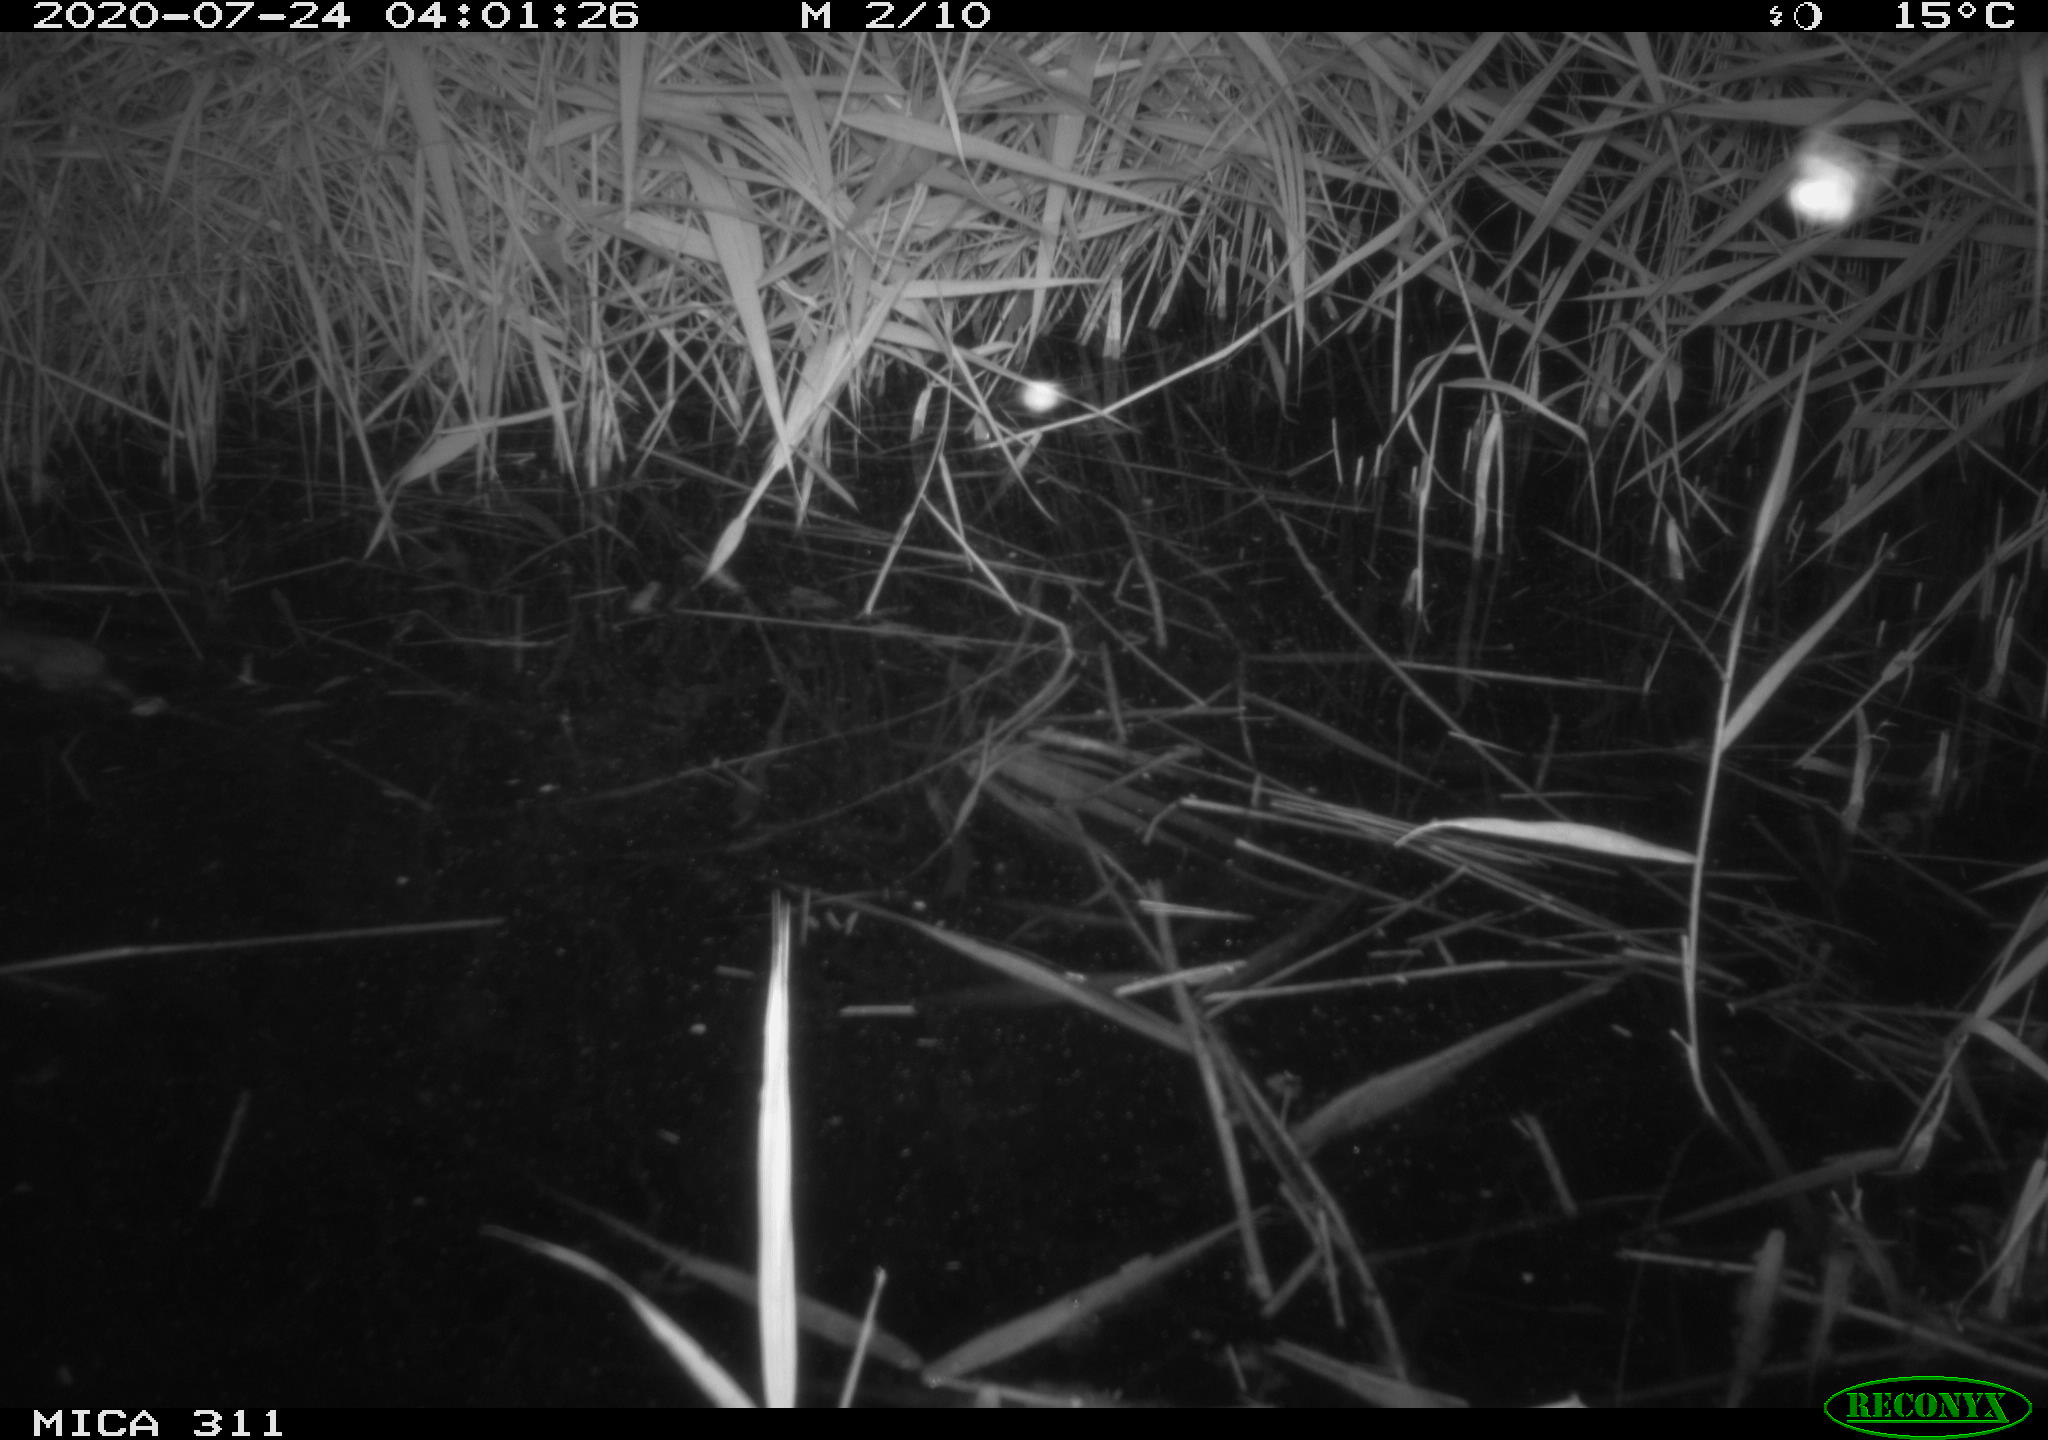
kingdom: Animalia
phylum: Chordata
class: Mammalia
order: Rodentia
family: Muridae
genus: Rattus
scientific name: Rattus norvegicus
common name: Brown rat
